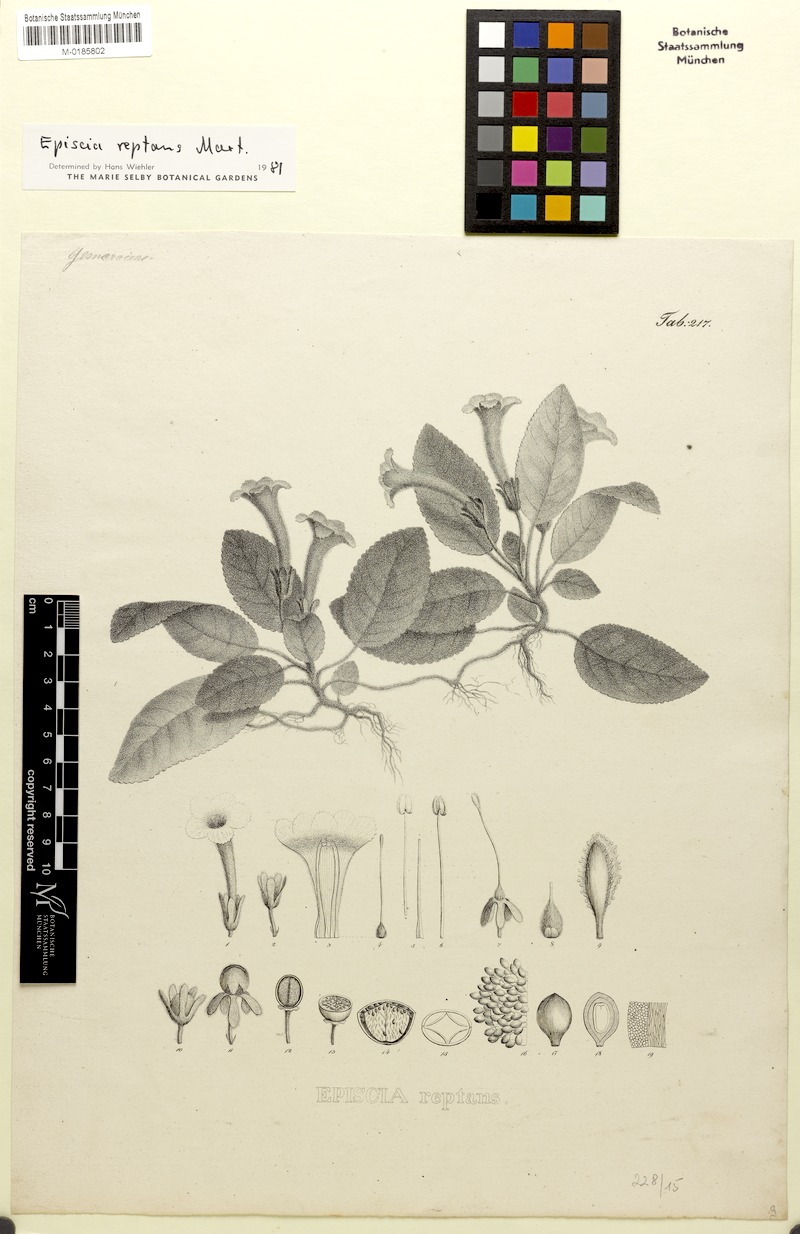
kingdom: Plantae
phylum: Tracheophyta
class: Magnoliopsida
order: Lamiales
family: Gesneriaceae
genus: Episcia
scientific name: Episcia reptans
